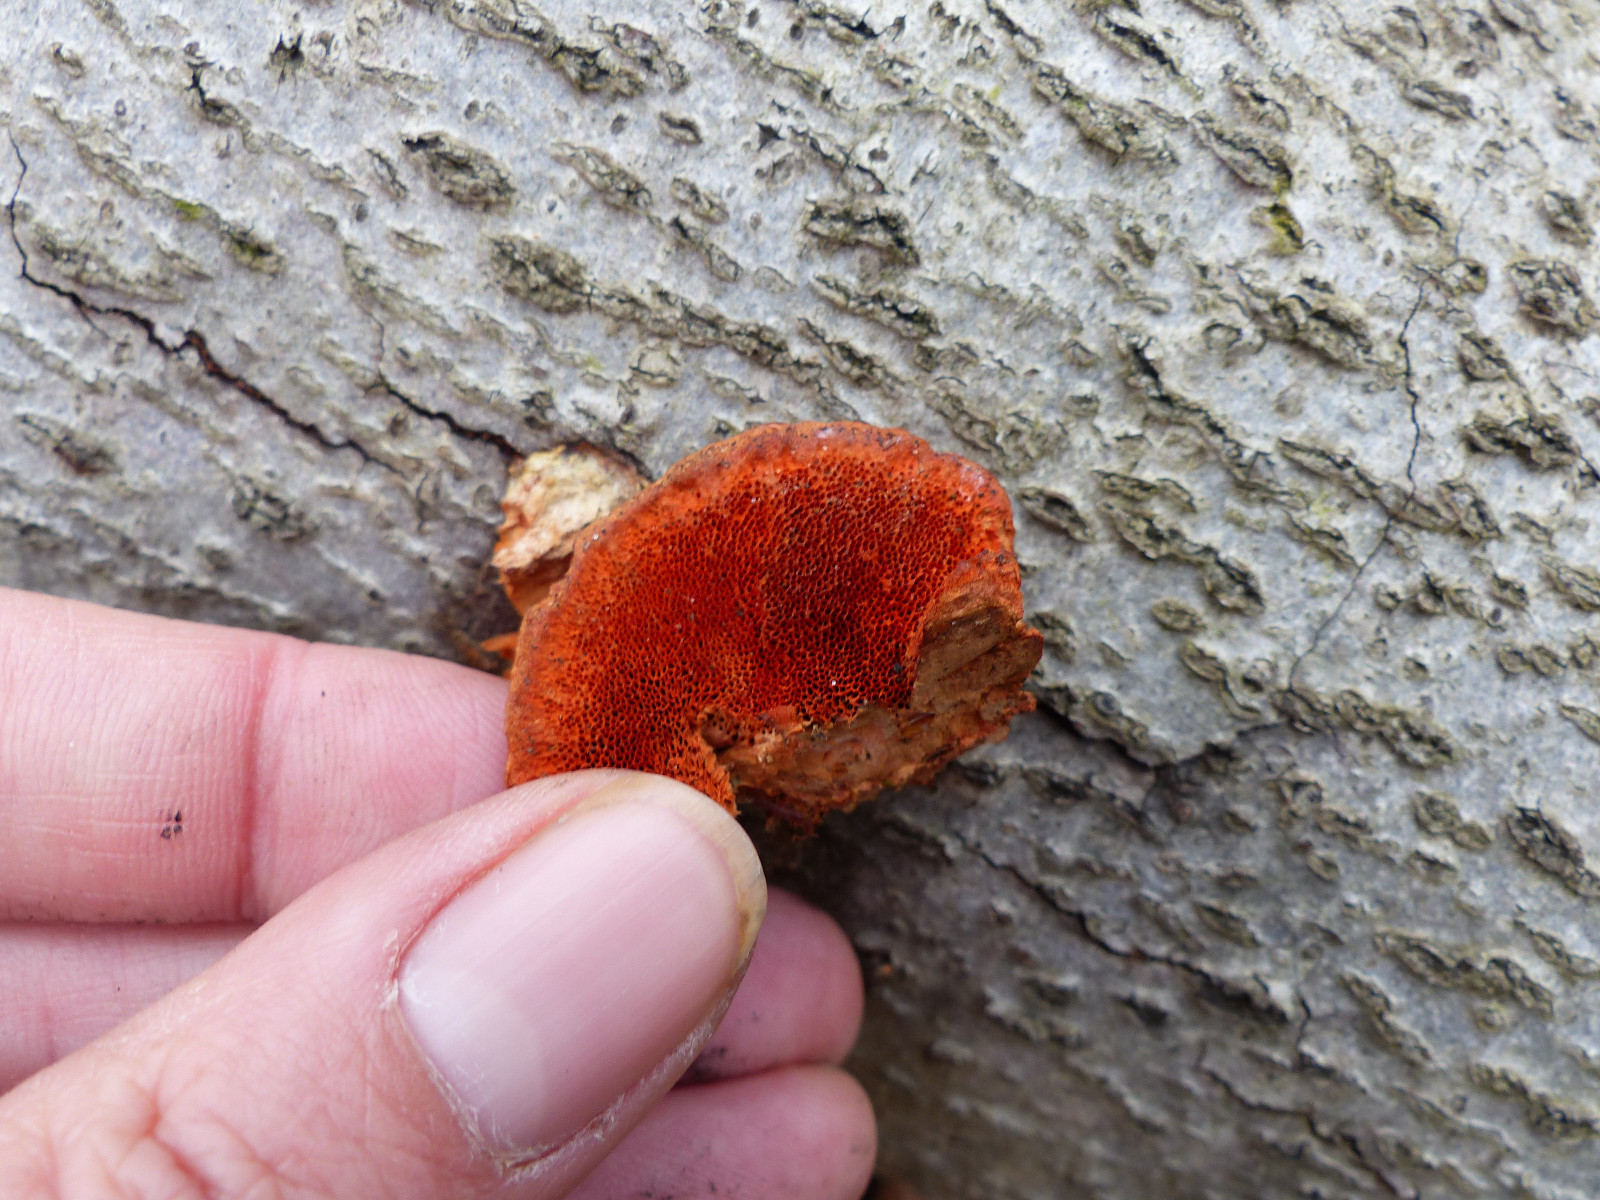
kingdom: Fungi
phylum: Basidiomycota
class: Agaricomycetes
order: Polyporales
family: Polyporaceae
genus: Trametes
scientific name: Trametes cinnabarina
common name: cinnoberporesvamp
